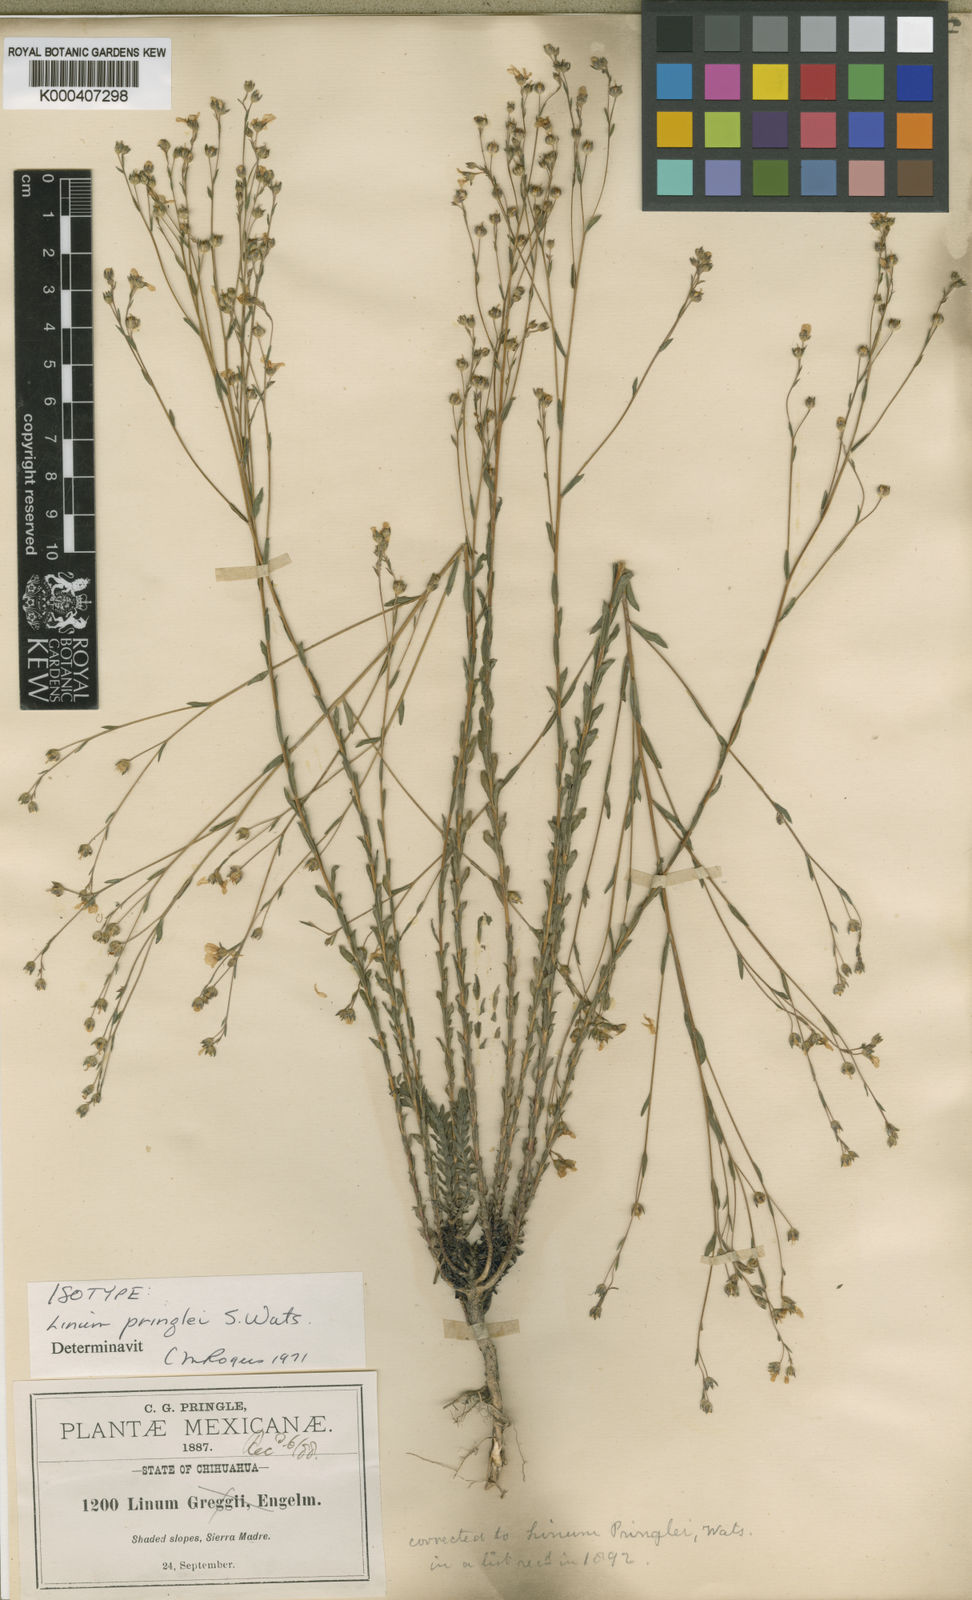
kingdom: Plantae
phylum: Tracheophyta
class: Magnoliopsida
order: Malpighiales
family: Linaceae
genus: Linum
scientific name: Linum pringlei
